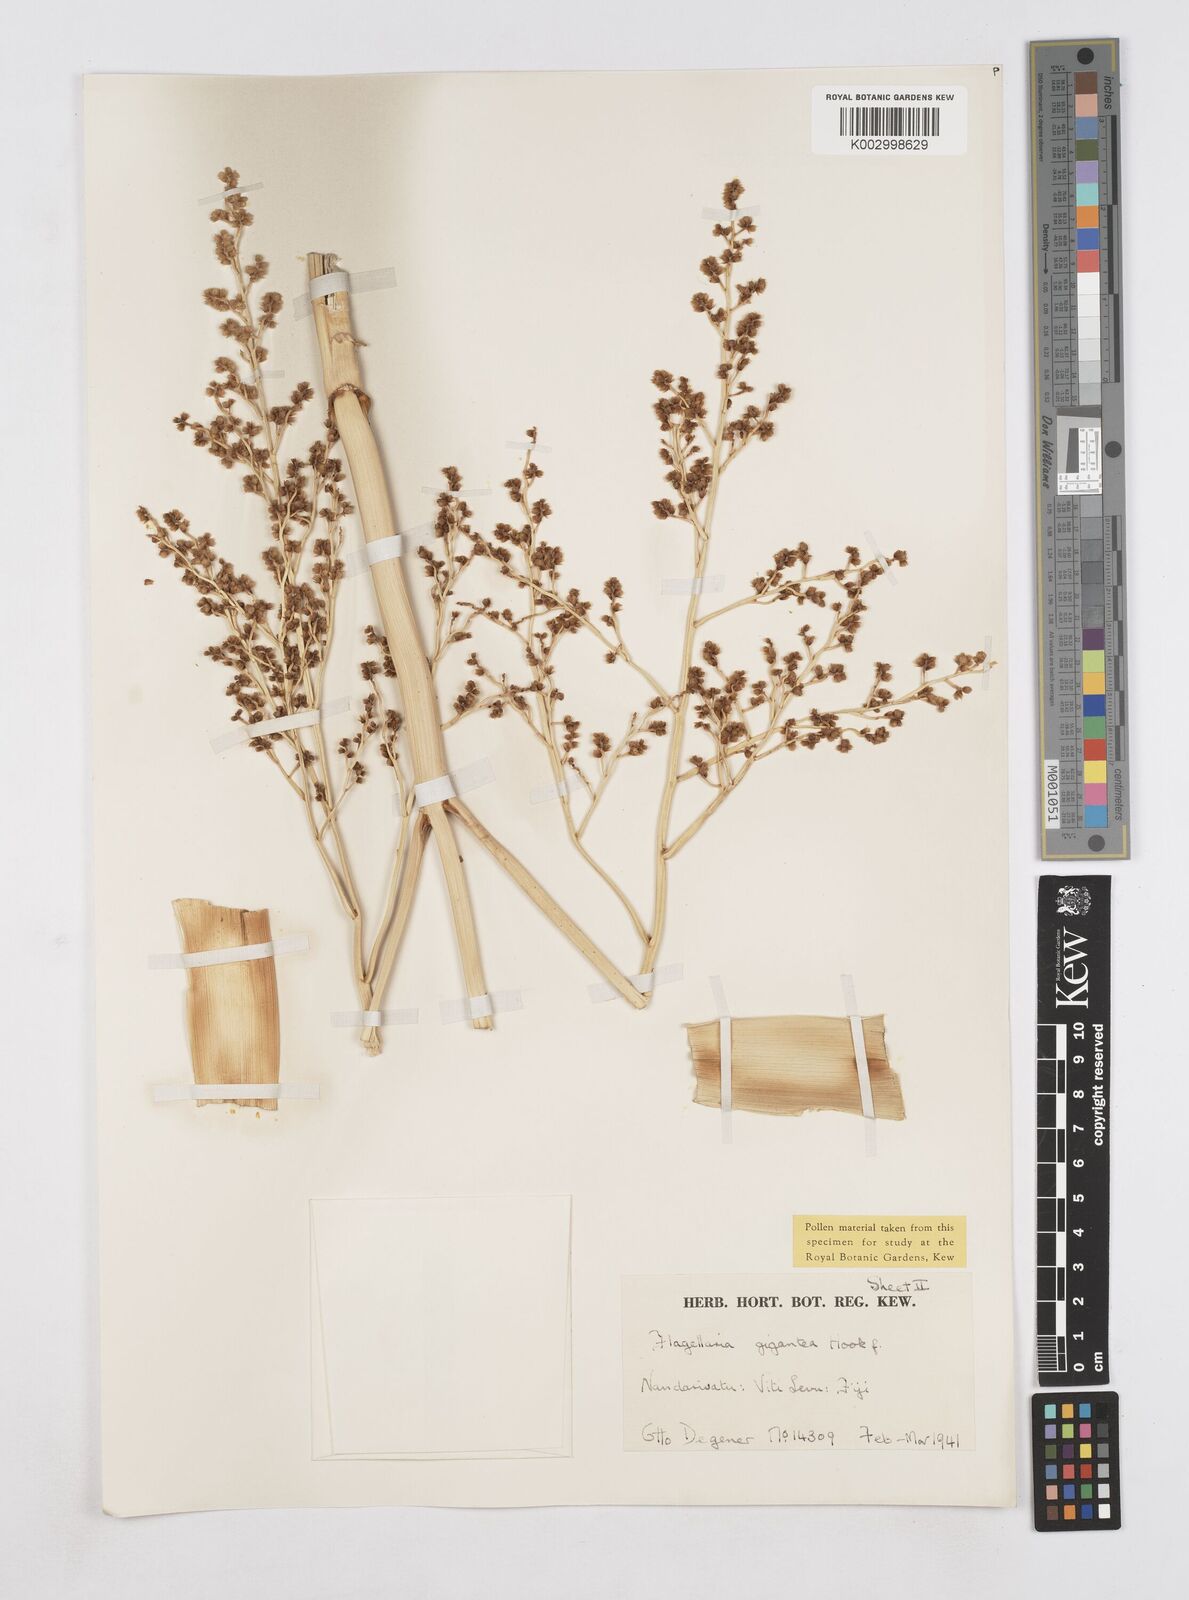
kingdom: Plantae
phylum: Tracheophyta
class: Liliopsida
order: Poales
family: Flagellariaceae
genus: Flagellaria
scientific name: Flagellaria gigantea
